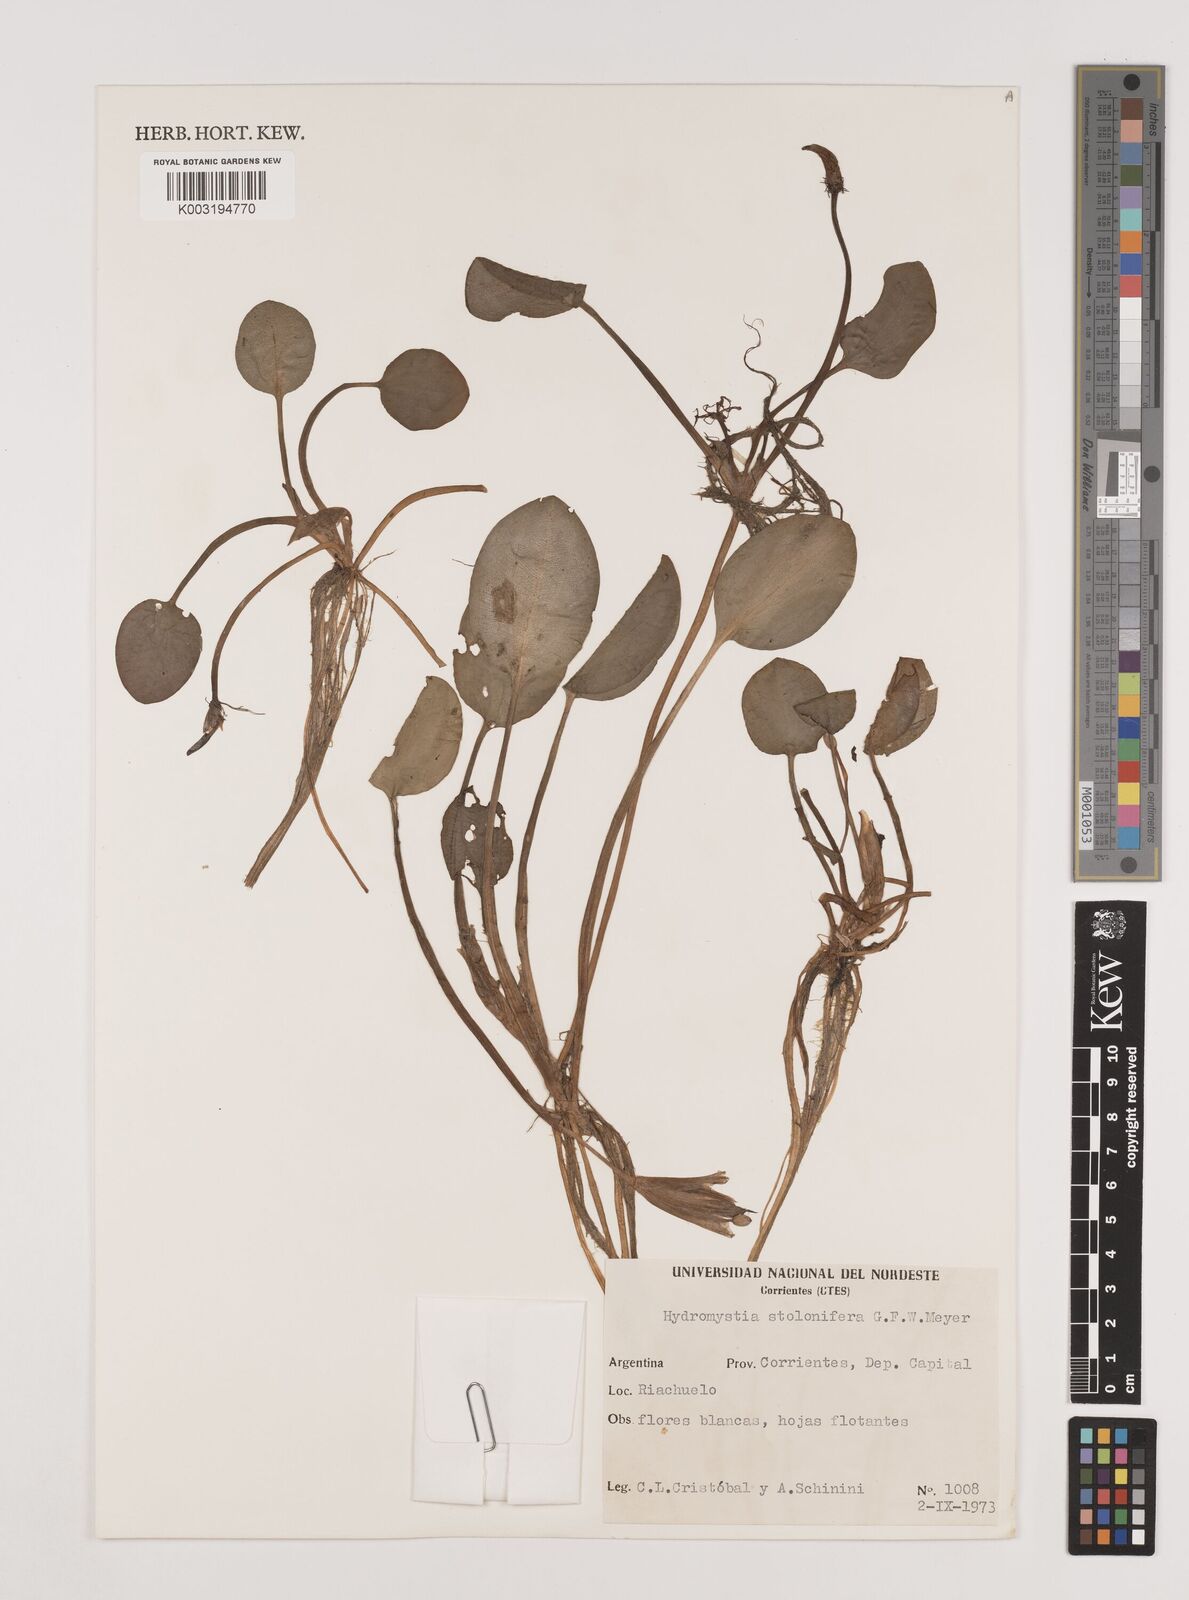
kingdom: Plantae
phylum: Tracheophyta
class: Liliopsida
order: Alismatales
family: Hydrocharitaceae
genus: Hydrocharis
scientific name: Hydrocharis laevigata
